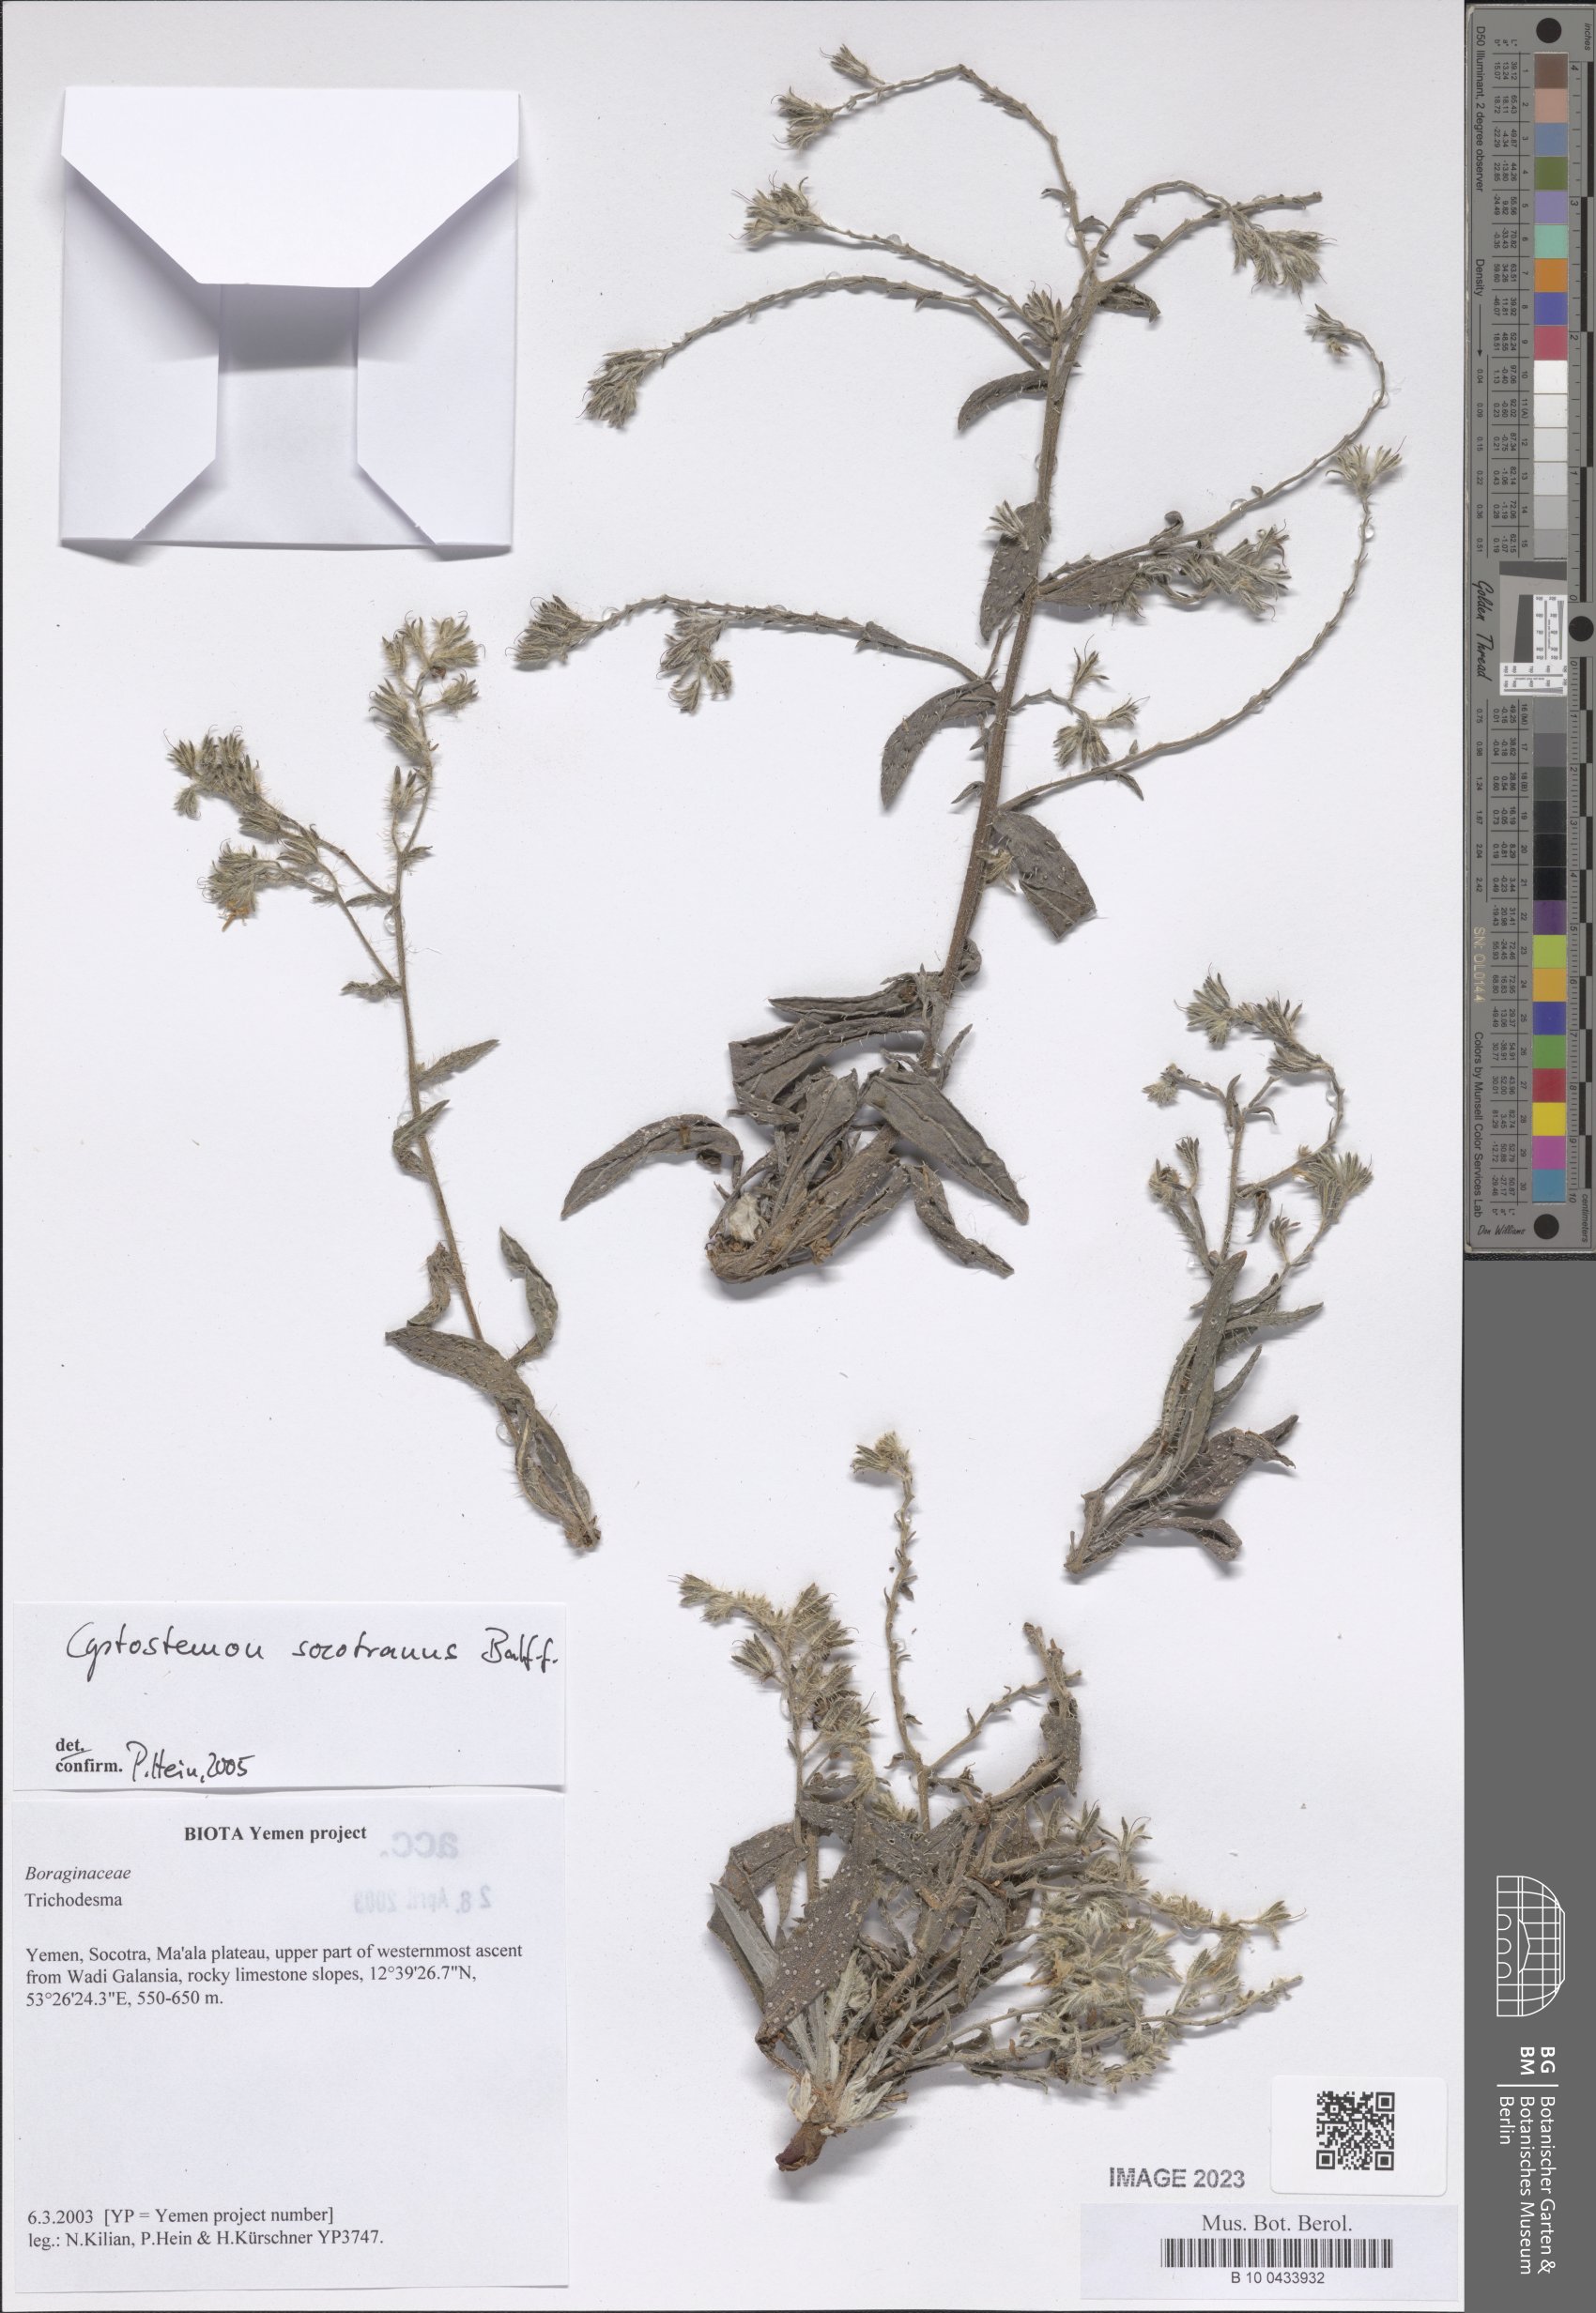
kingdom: Plantae
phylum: Tracheophyta
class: Magnoliopsida
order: Boraginales
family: Boraginaceae
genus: Cystostemon
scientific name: Cystostemon socotranus
